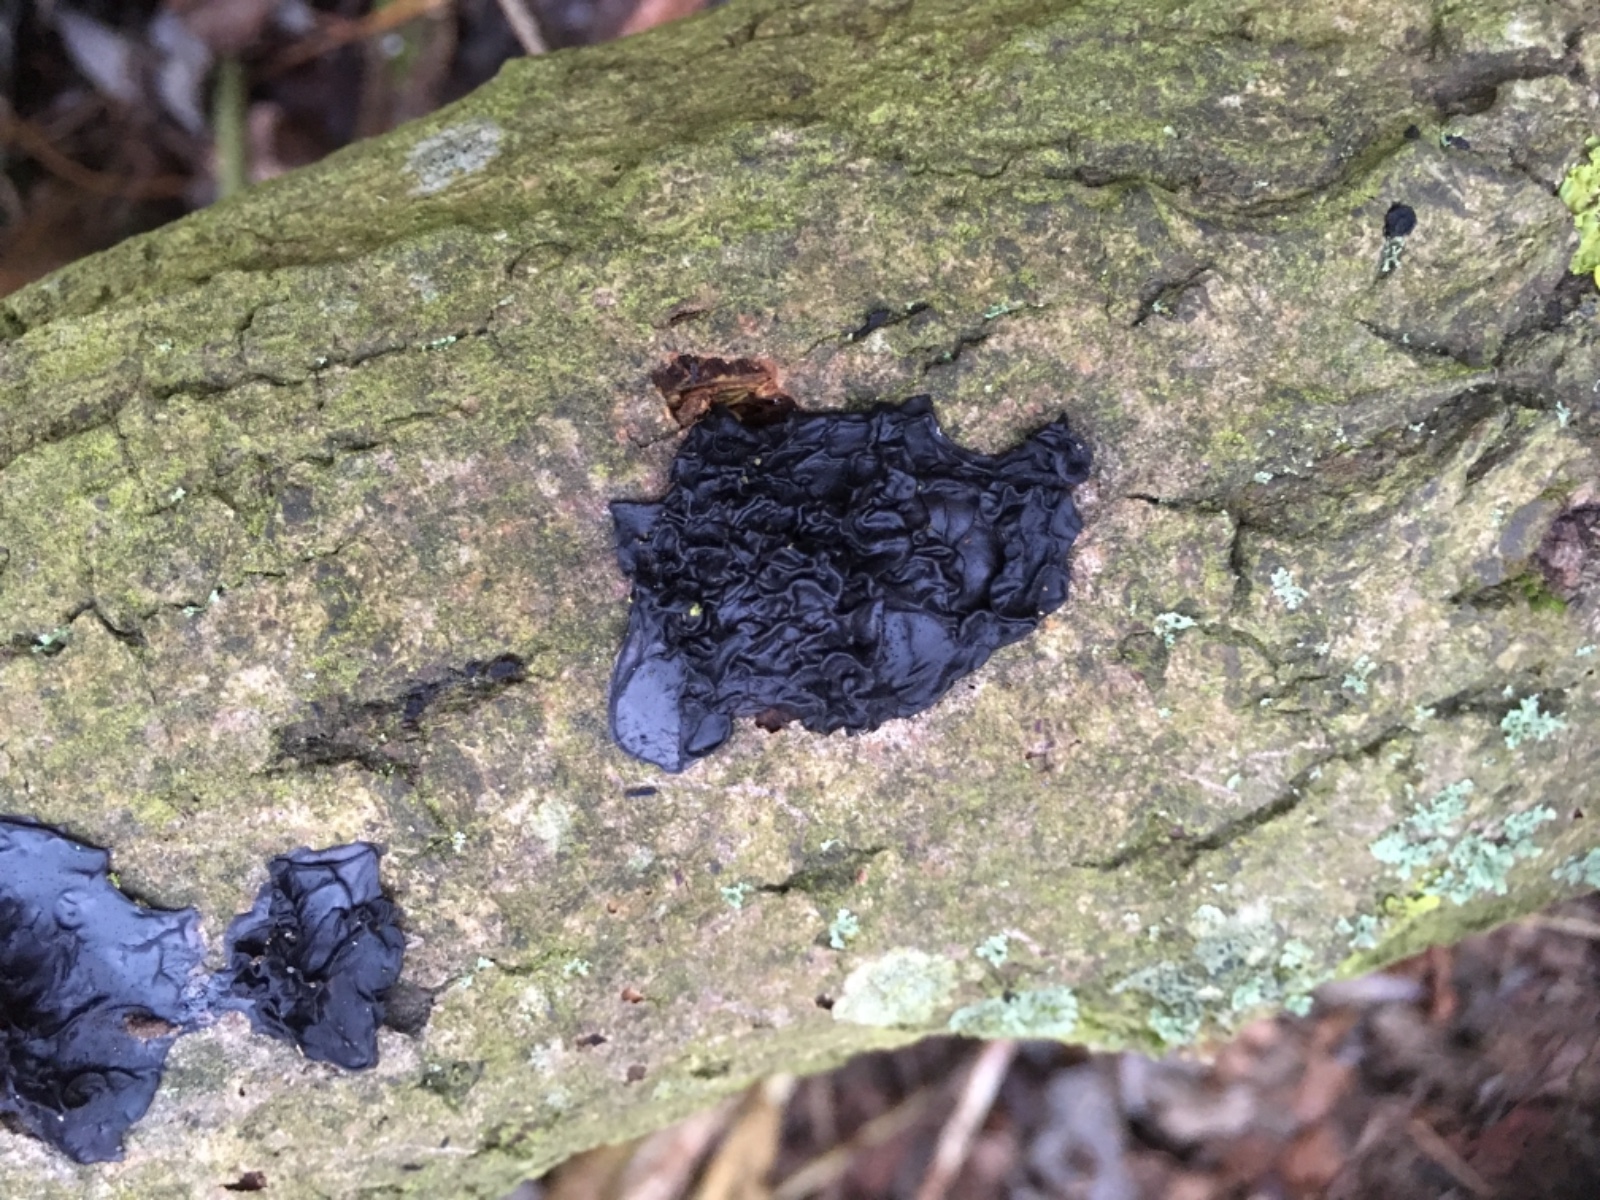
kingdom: Fungi
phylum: Basidiomycota
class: Agaricomycetes
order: Auriculariales
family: Auriculariaceae
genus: Exidia
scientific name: Exidia recisa
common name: pile-bævretop
